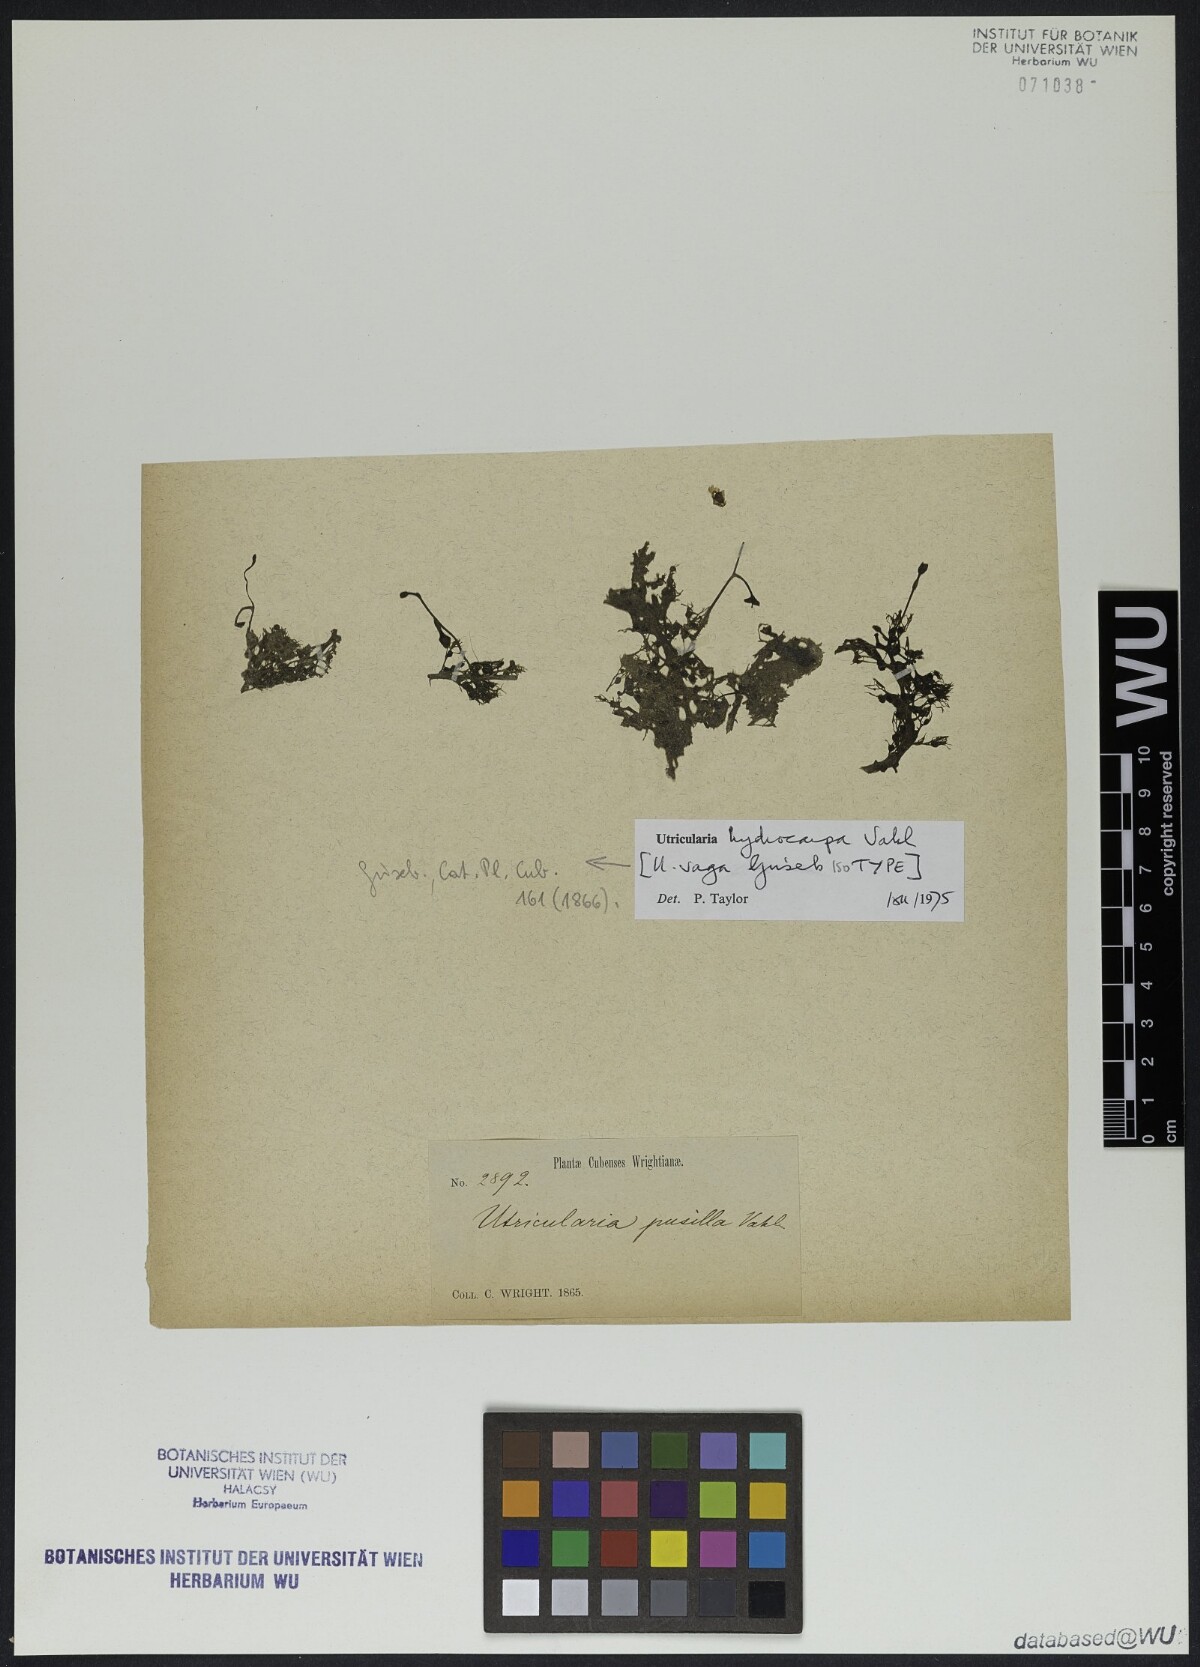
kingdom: Plantae
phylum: Tracheophyta
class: Magnoliopsida
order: Lamiales
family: Lentibulariaceae
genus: Utricularia
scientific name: Utricularia hydrocarpa
